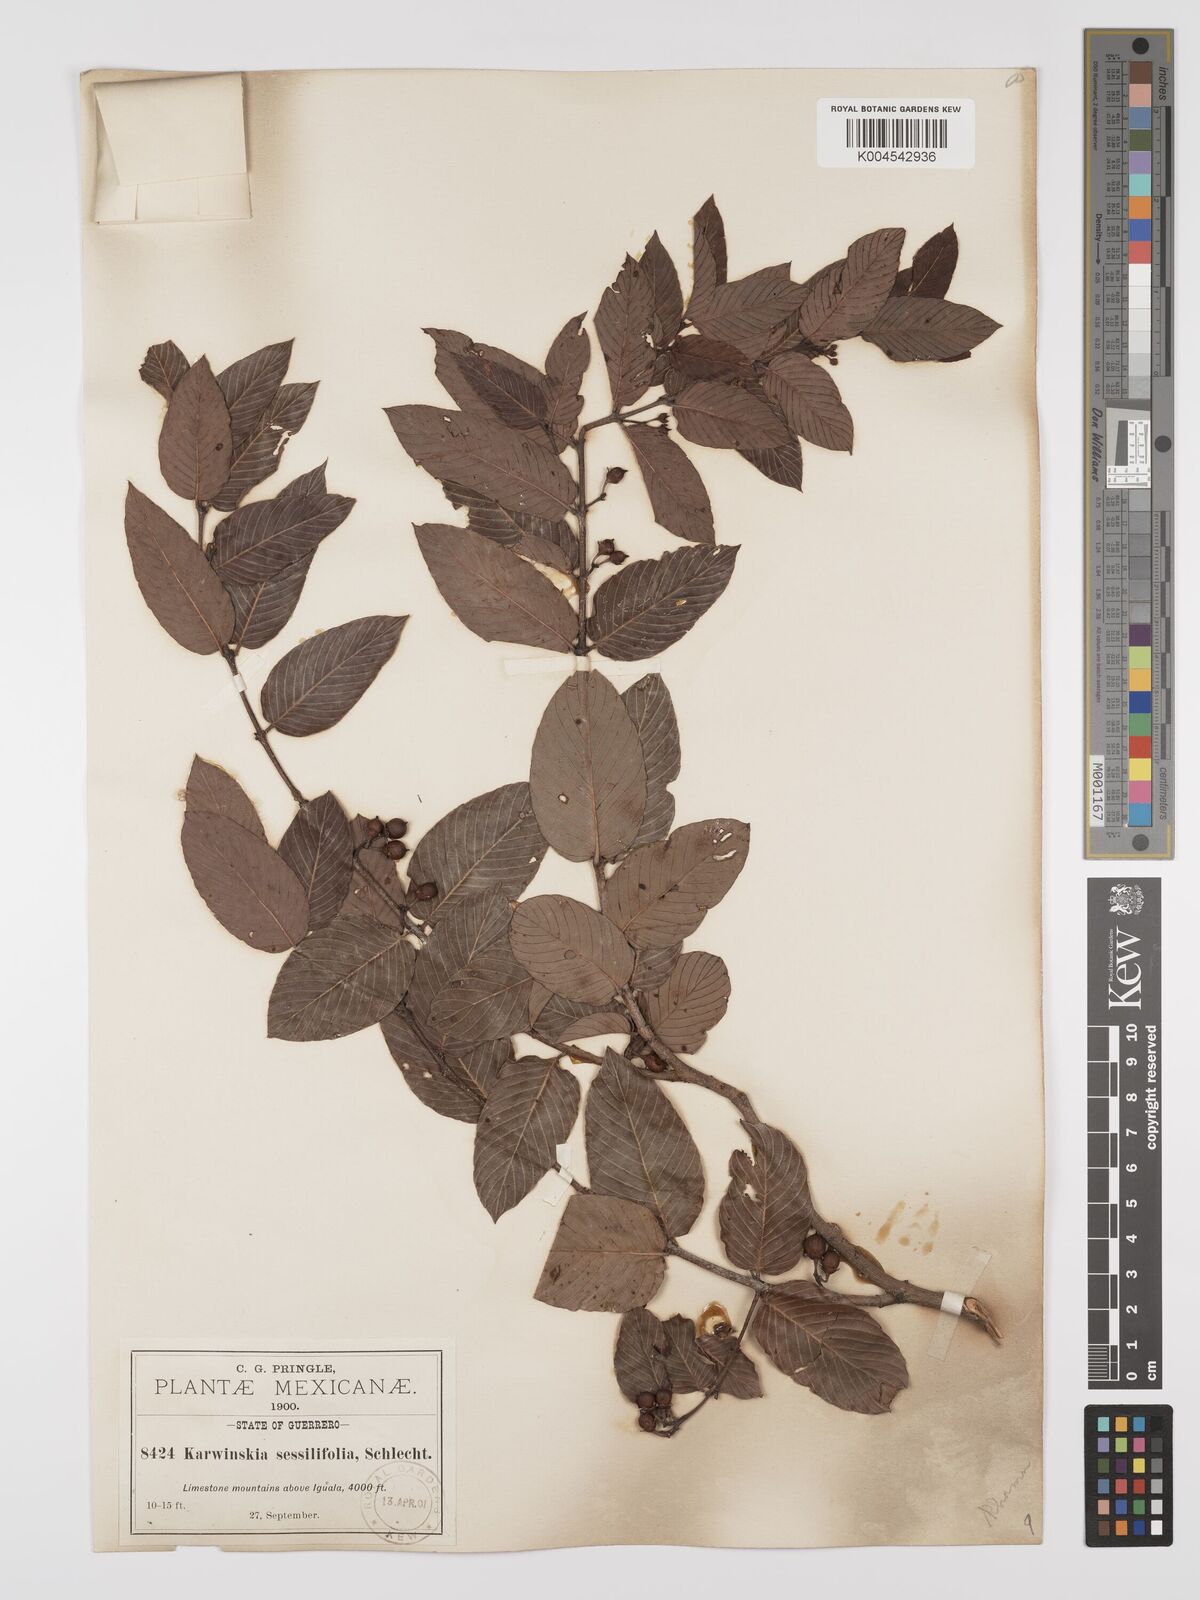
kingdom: Plantae
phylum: Tracheophyta
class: Magnoliopsida
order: Rosales
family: Rhamnaceae
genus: Karwinskia
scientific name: Karwinskia umbellata
